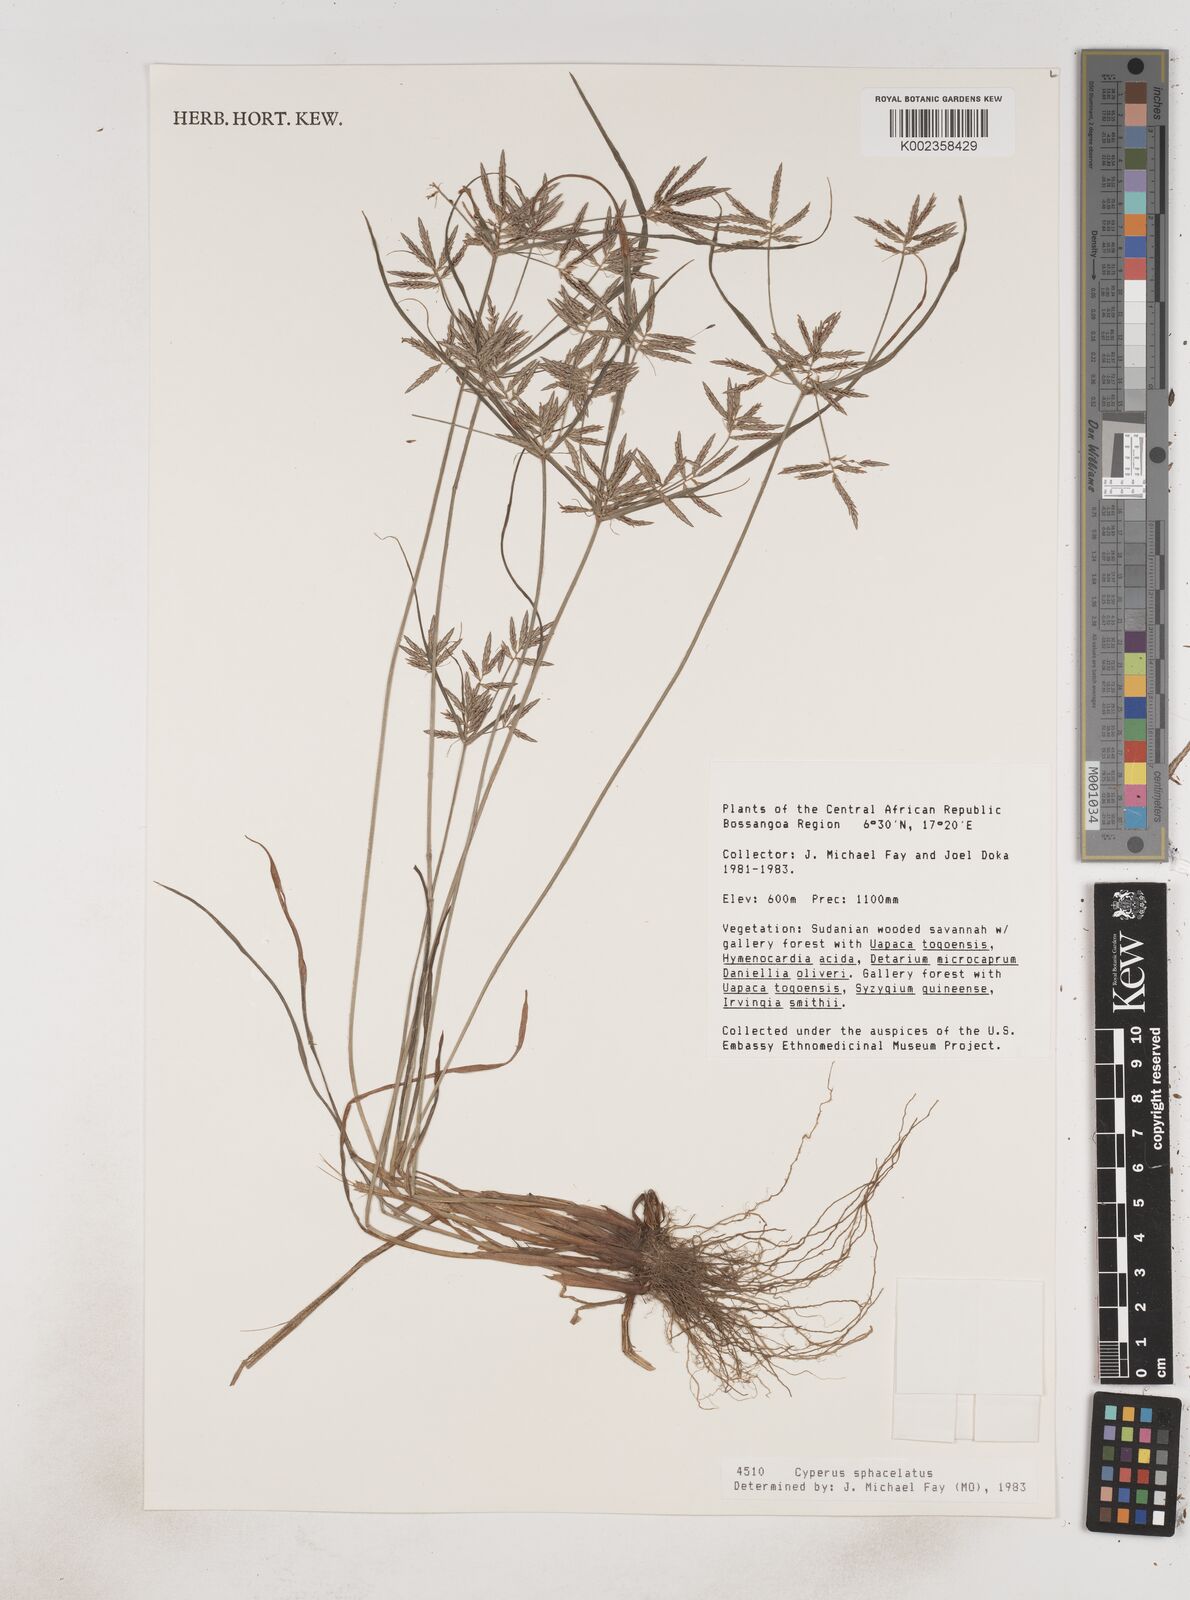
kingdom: Plantae
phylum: Tracheophyta
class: Liliopsida
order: Poales
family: Cyperaceae
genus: Cyperus
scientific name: Cyperus sphacelatus
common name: Roadside flatsedge
